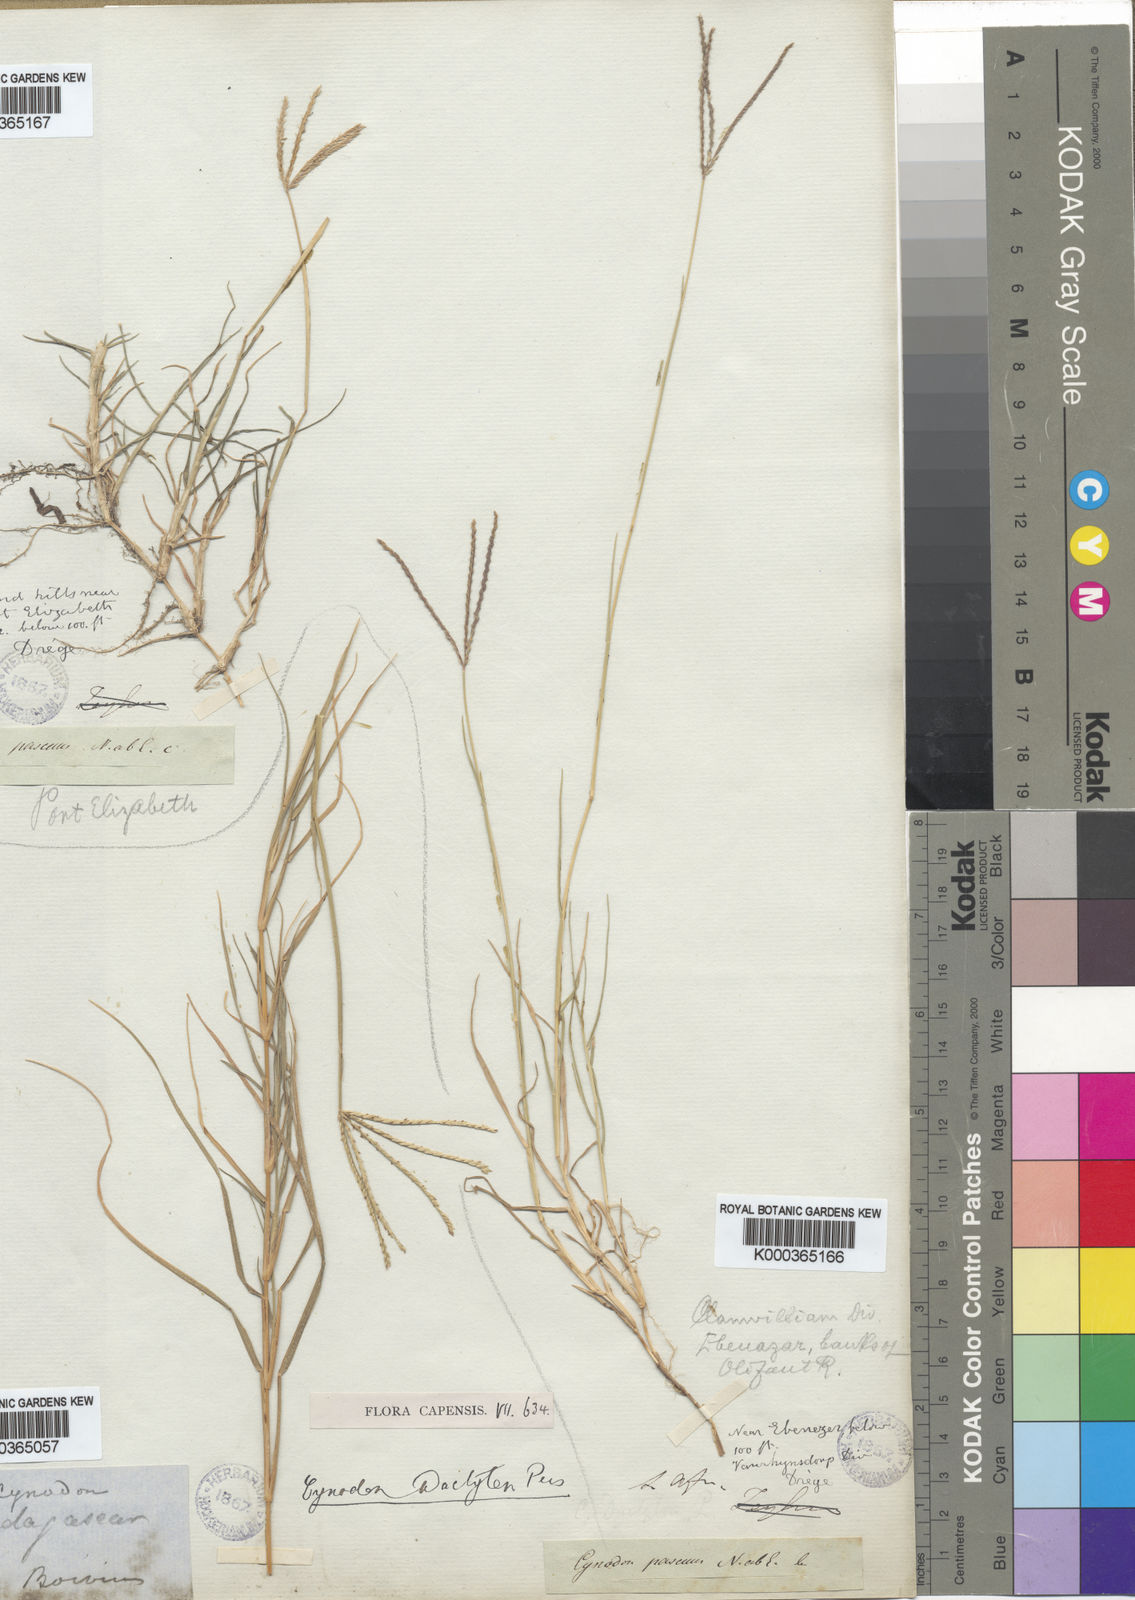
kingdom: Plantae
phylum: Tracheophyta
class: Liliopsida
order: Poales
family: Poaceae
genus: Cynodon
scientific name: Cynodon dactylon
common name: Bermuda grass
